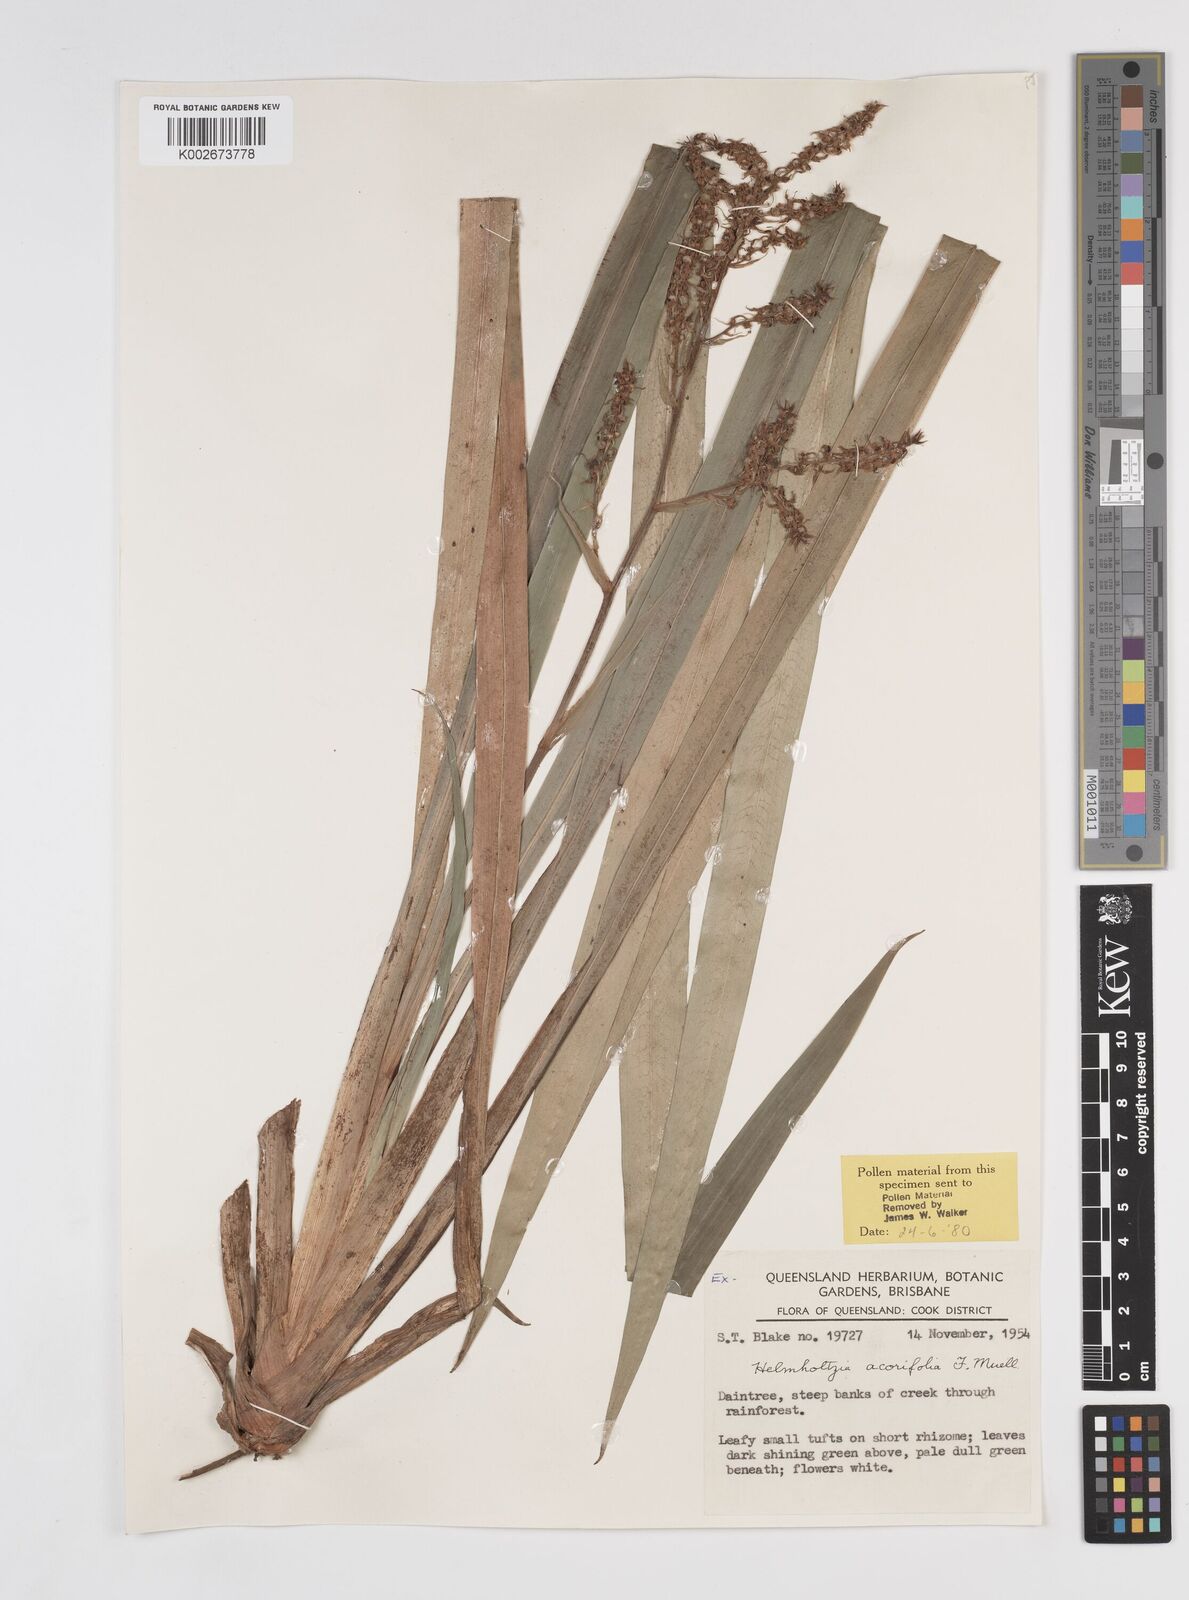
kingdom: Plantae
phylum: Tracheophyta
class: Liliopsida
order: Commelinales
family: Philydraceae
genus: Helmholtzia
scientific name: Helmholtzia acorifolia
